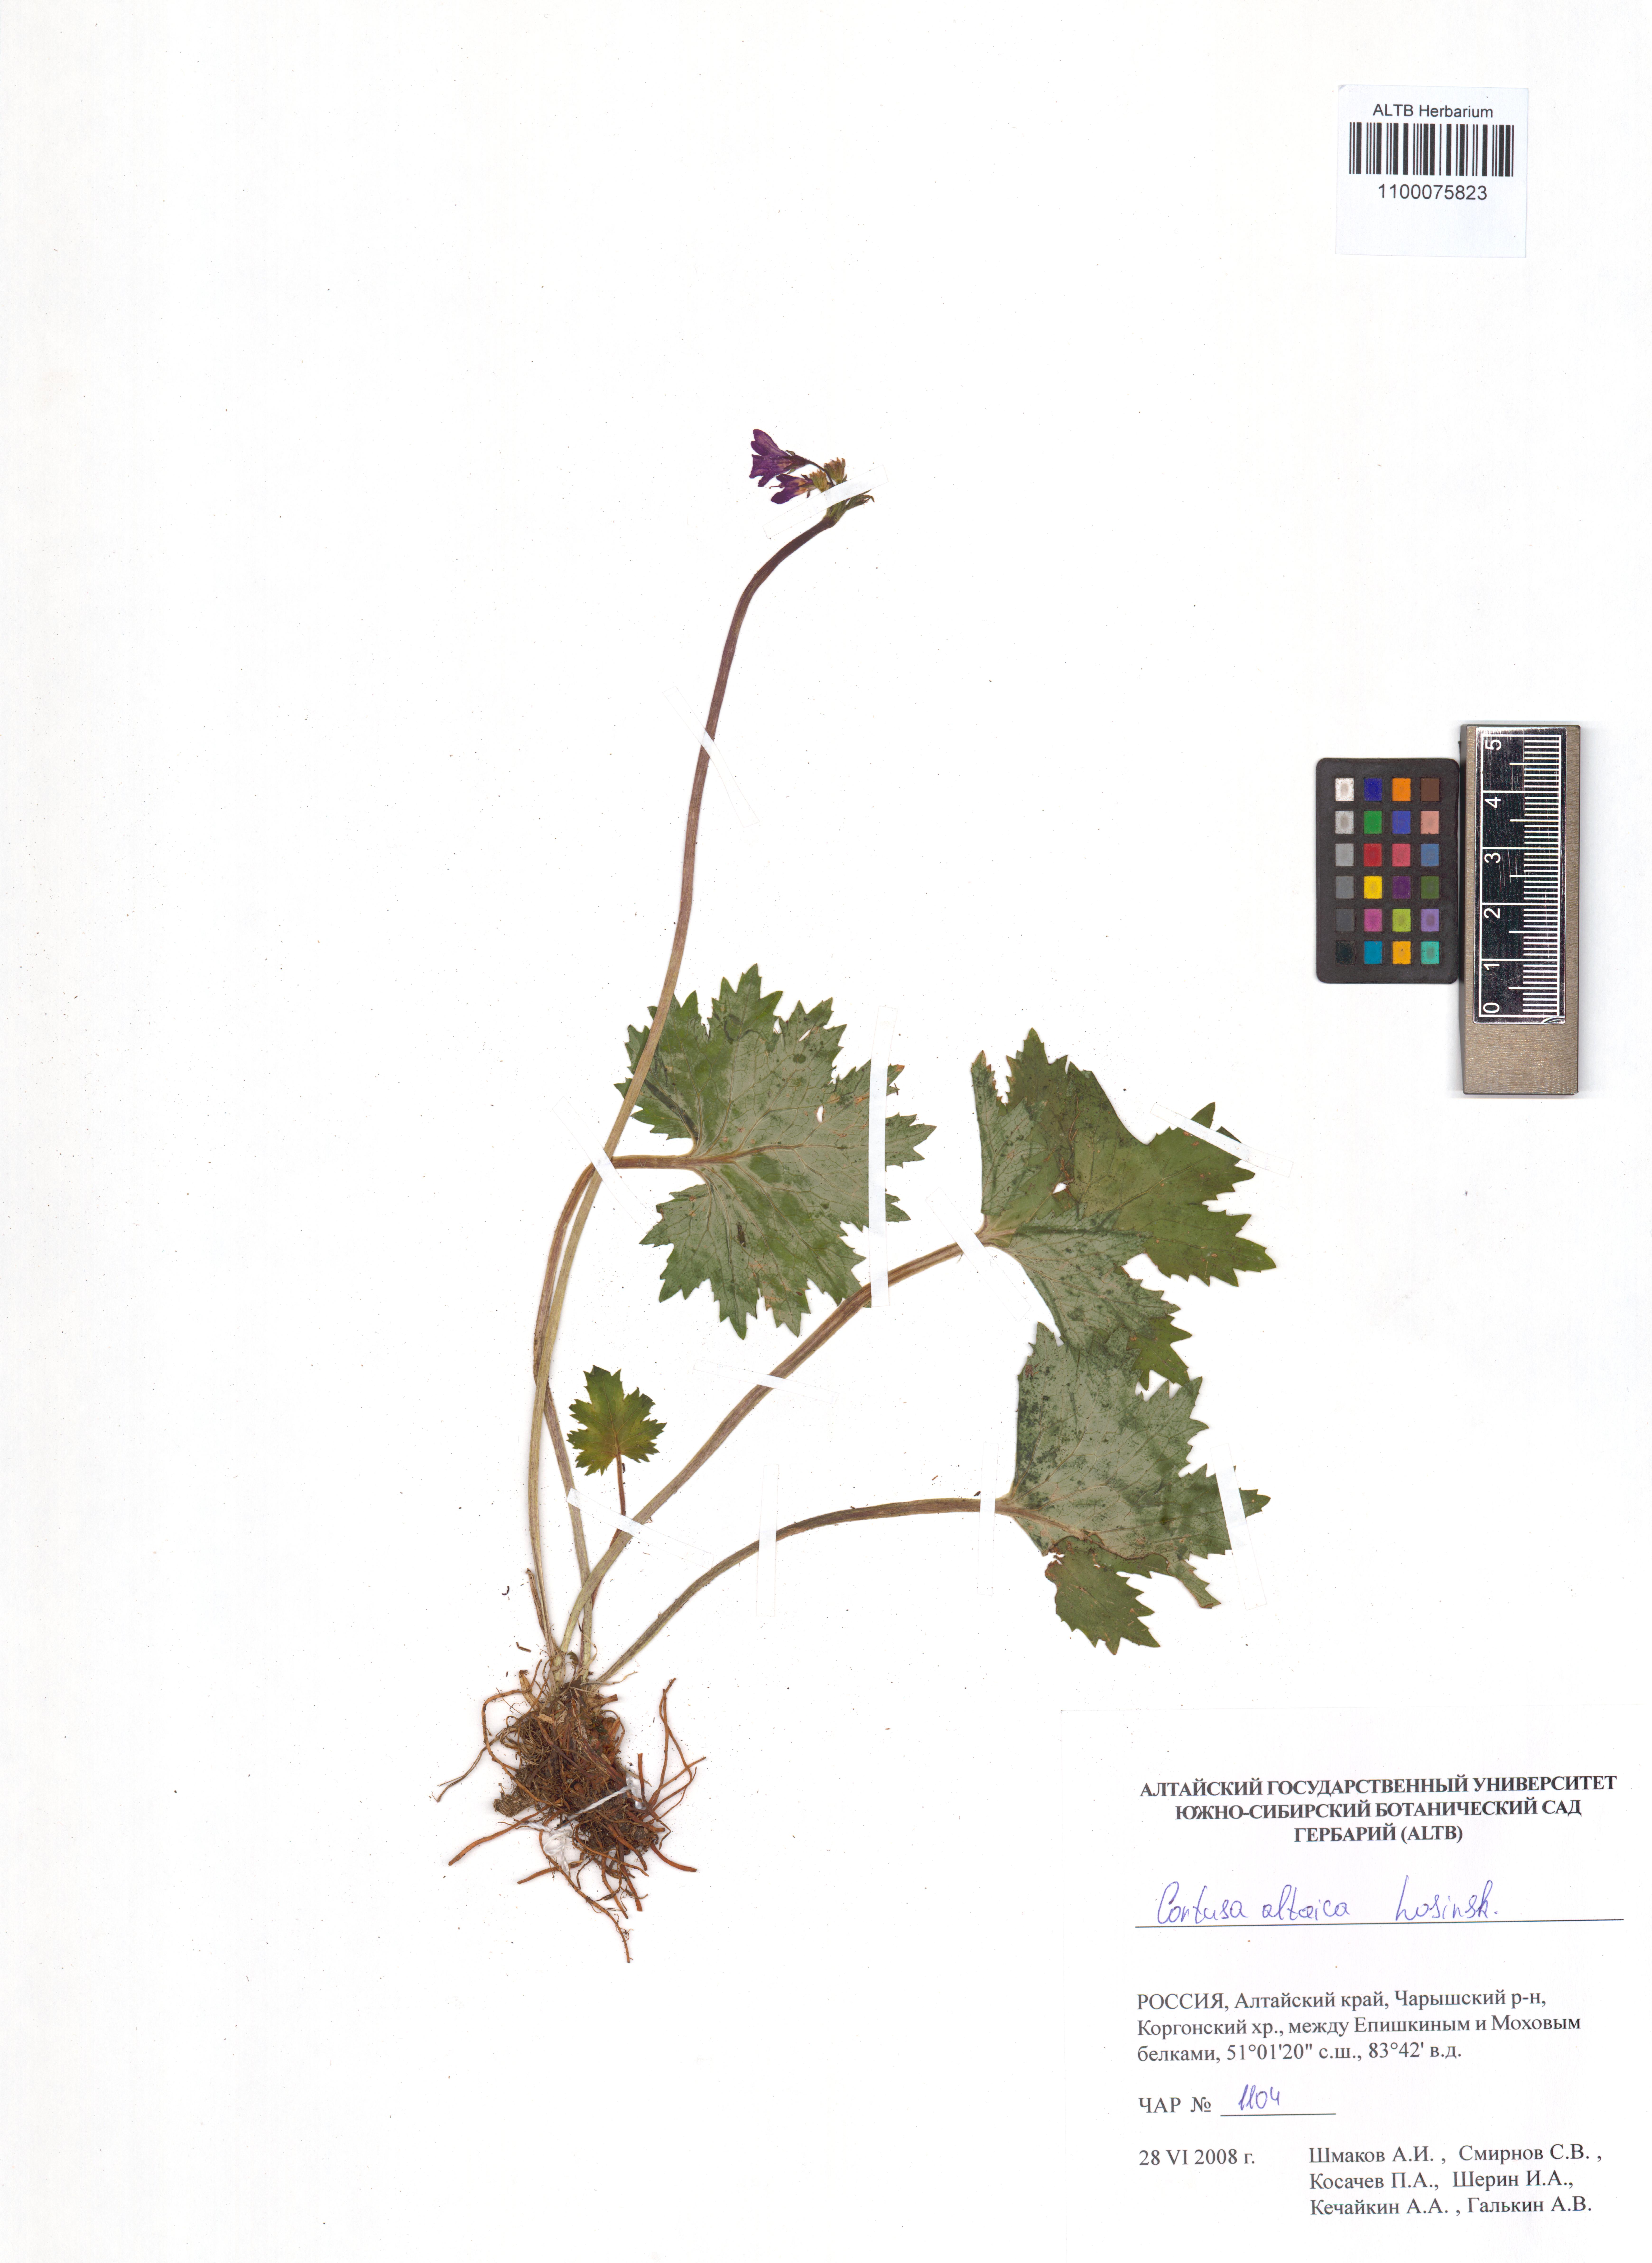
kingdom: Plantae
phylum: Tracheophyta
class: Magnoliopsida
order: Ericales
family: Primulaceae
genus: Primula
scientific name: Primula matthioli
